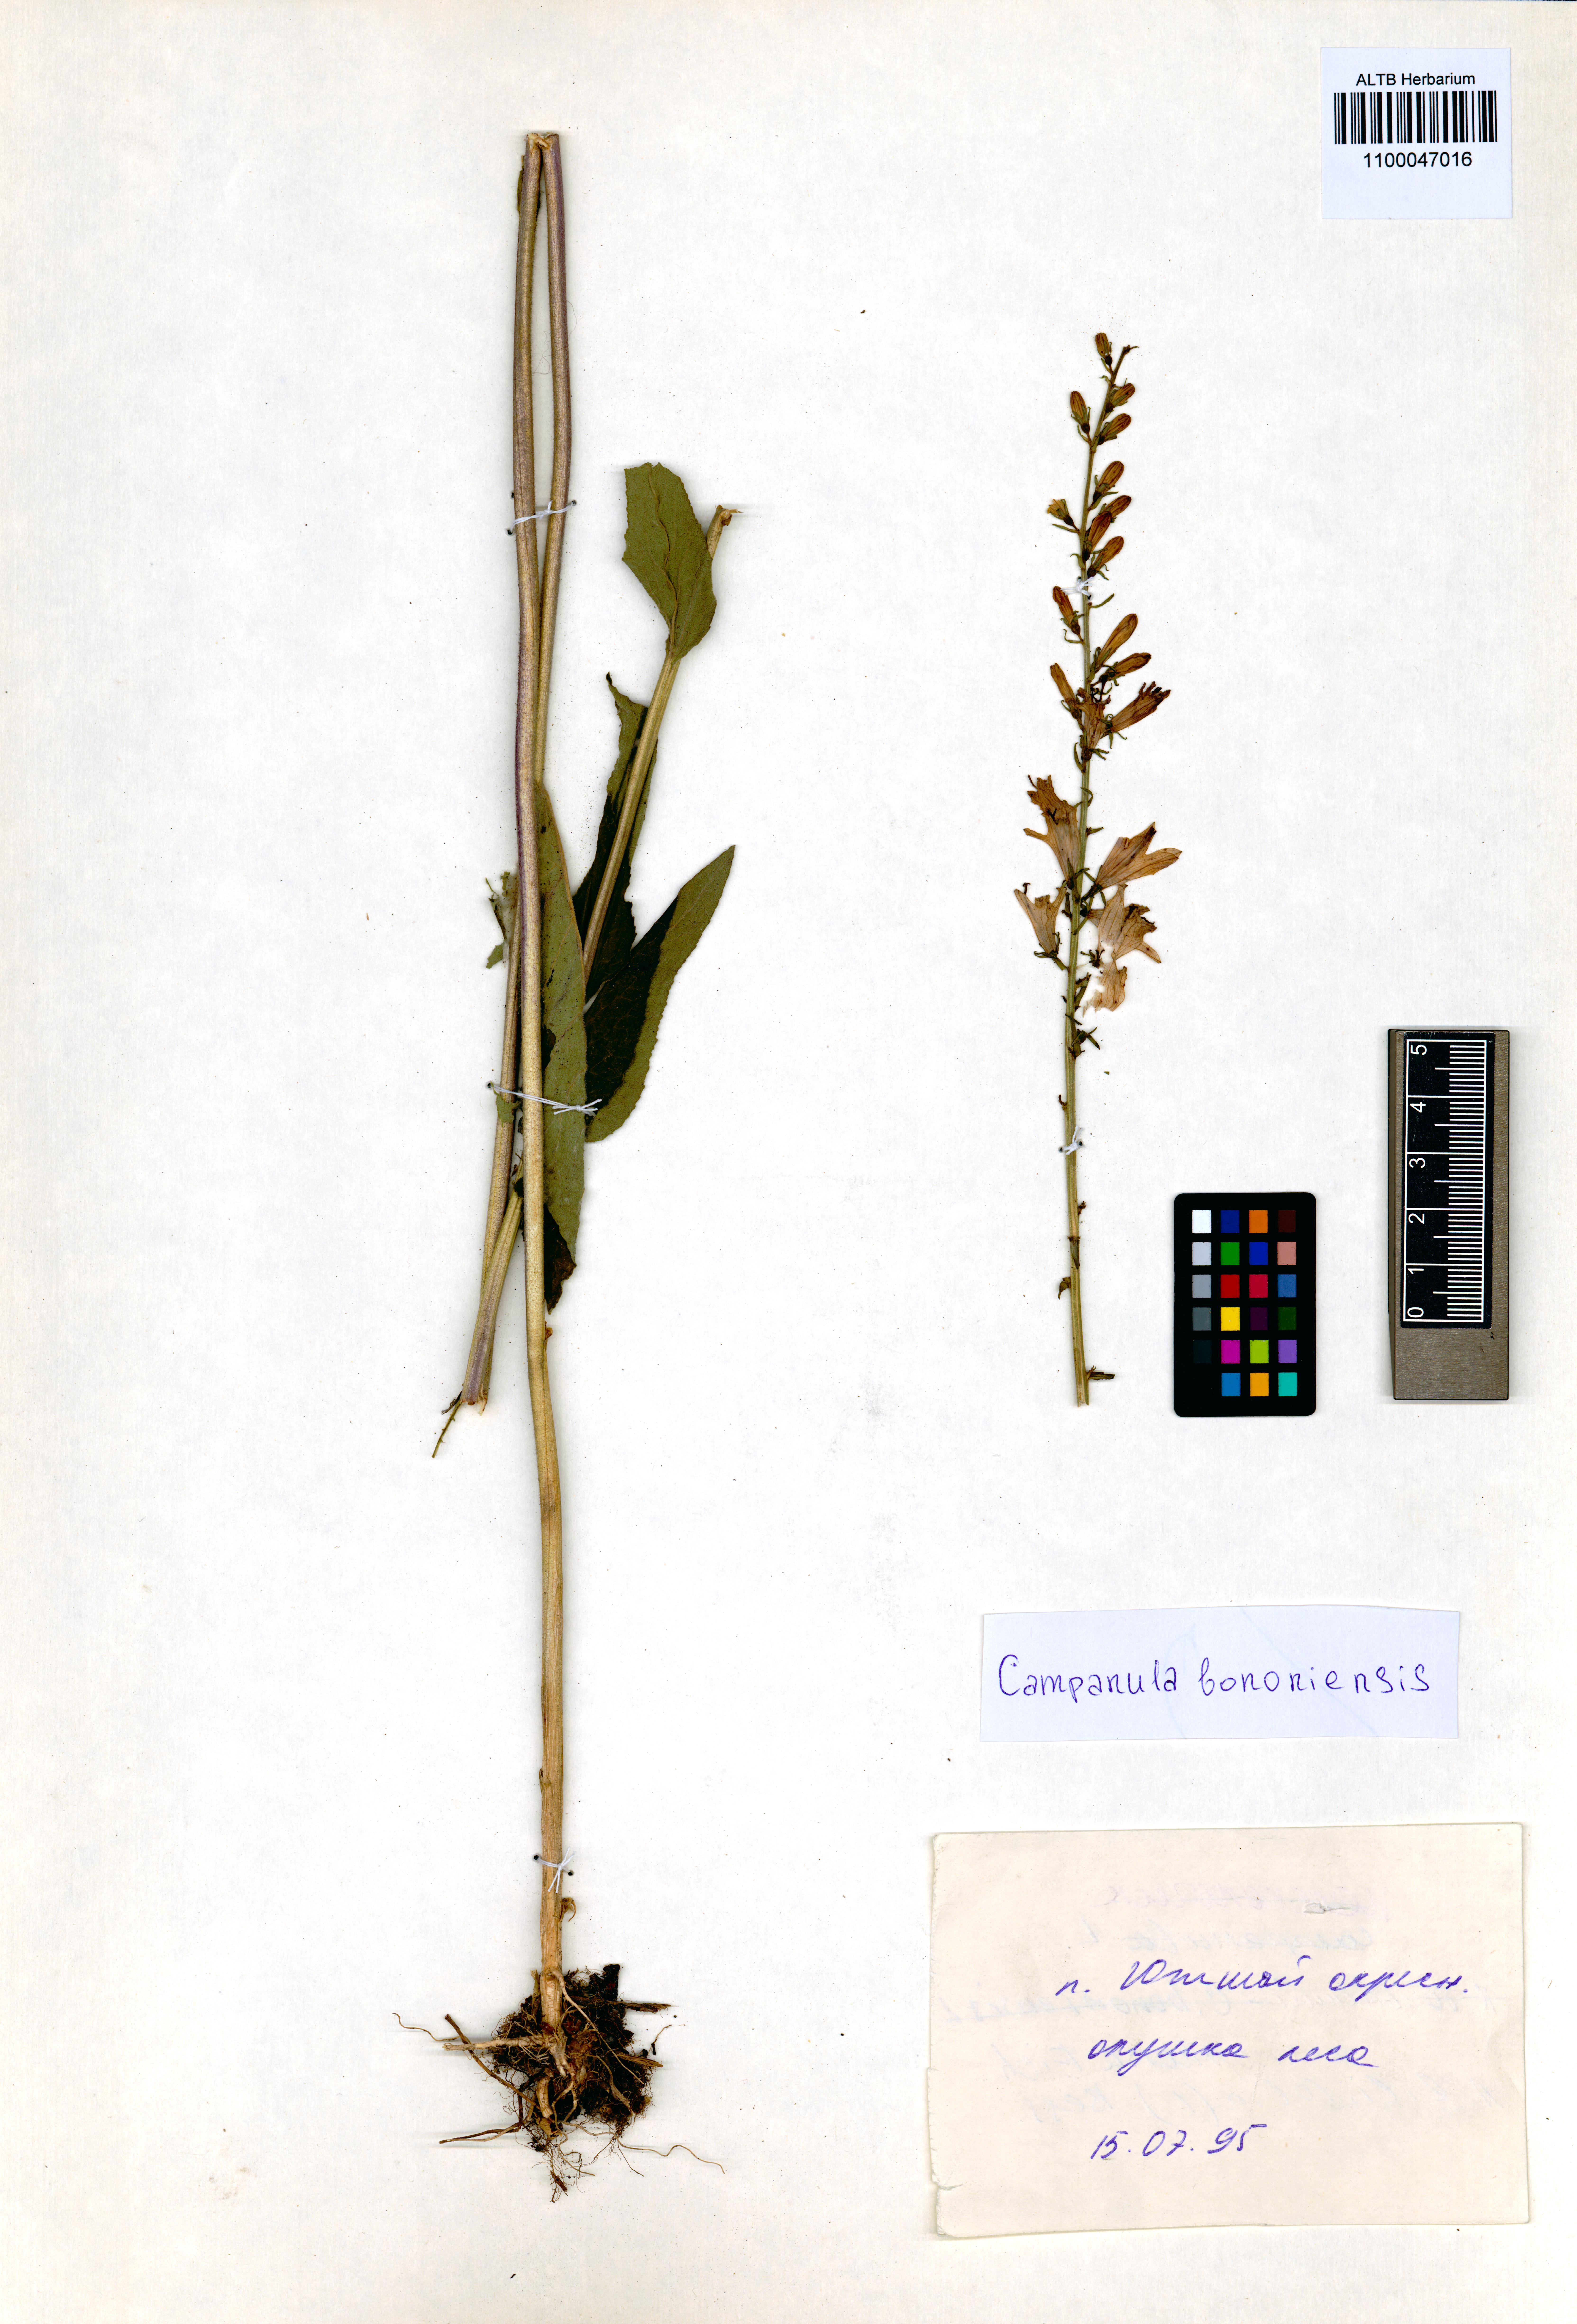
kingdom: Plantae
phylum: Tracheophyta
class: Magnoliopsida
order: Asterales
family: Campanulaceae
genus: Campanula
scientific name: Campanula bononiensis
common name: Pale bellflower
